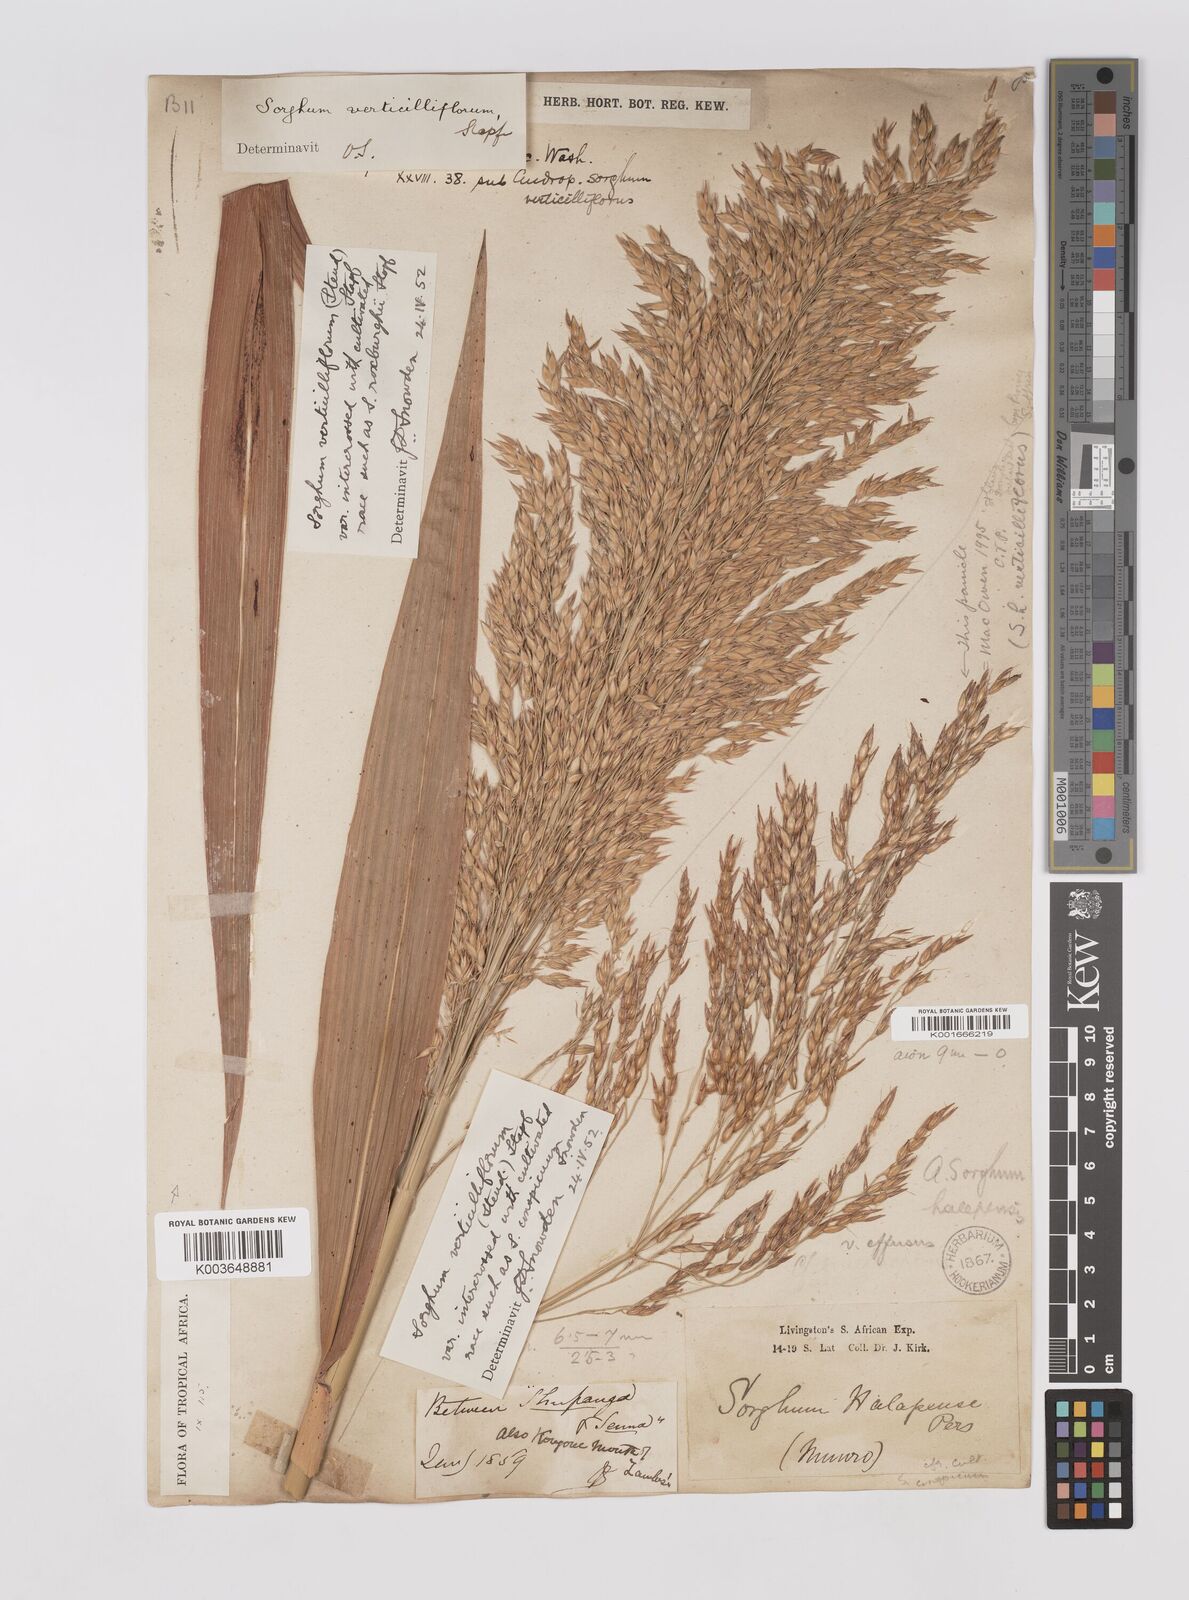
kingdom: Plantae
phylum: Tracheophyta
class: Liliopsida
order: Poales
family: Poaceae
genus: Sorghum
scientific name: Sorghum drummondii
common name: Sudangrass
